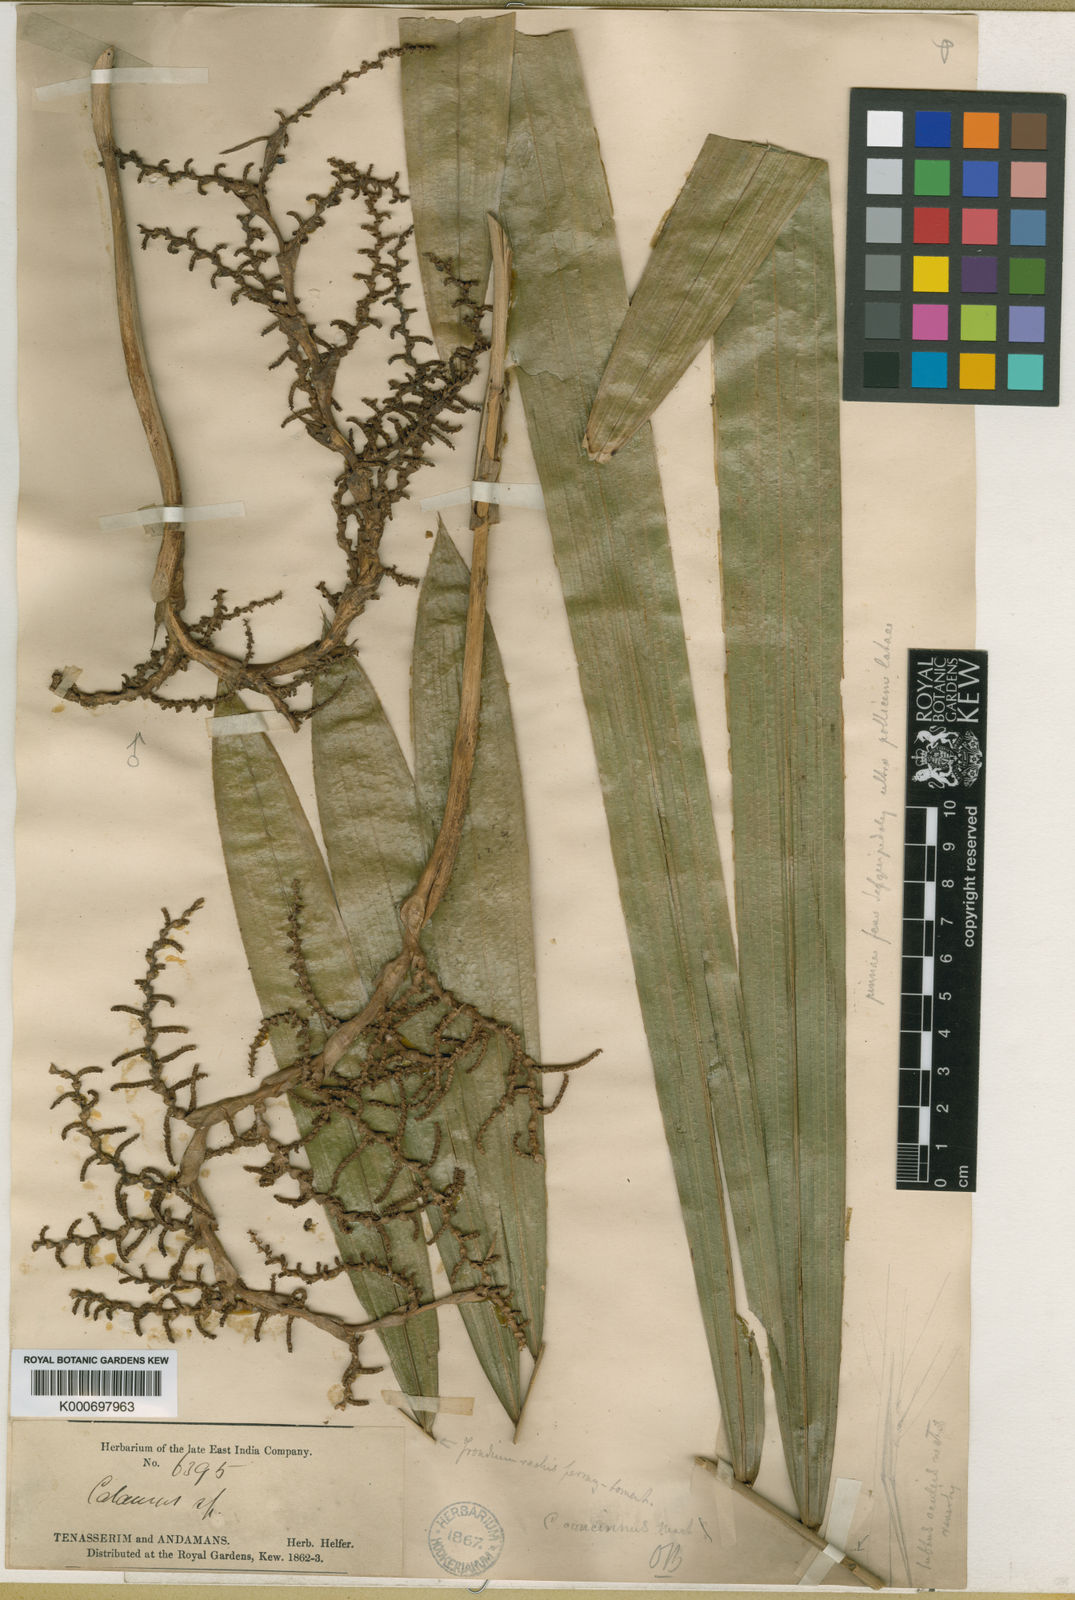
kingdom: Plantae
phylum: Tracheophyta
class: Liliopsida
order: Arecales
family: Arecaceae
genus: Calamus
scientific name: Calamus concinnus
